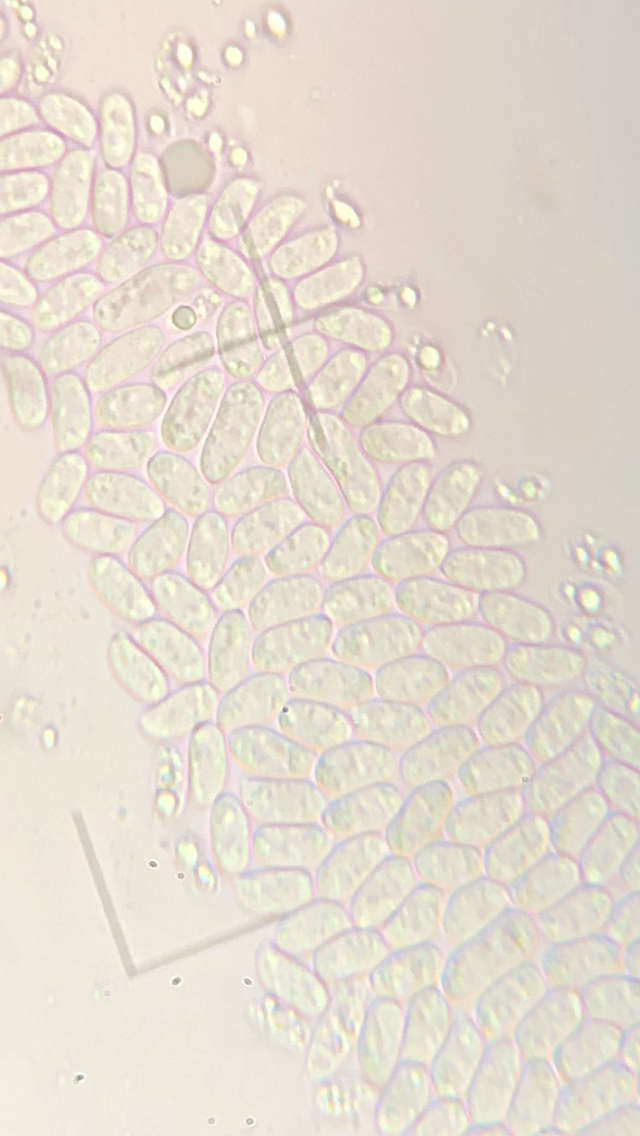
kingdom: Fungi
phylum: Basidiomycota
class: Agaricomycetes
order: Agaricales
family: Physalacriaceae
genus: Flammulina
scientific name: Flammulina velutipes
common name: gul fløjlsfod
